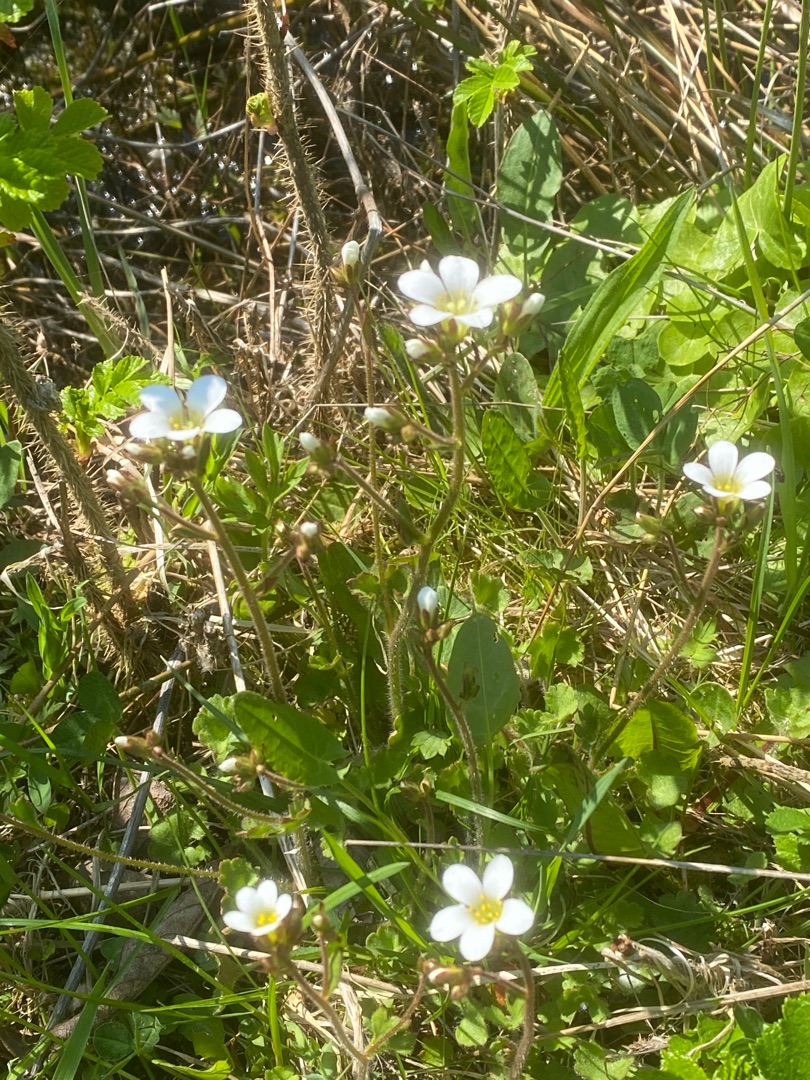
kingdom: Plantae
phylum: Tracheophyta
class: Magnoliopsida
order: Saxifragales
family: Saxifragaceae
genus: Saxifraga
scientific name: Saxifraga granulata
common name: Kornet stenbræk
